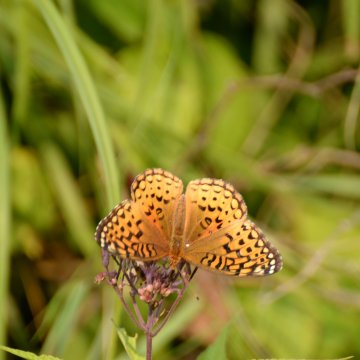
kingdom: Animalia
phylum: Arthropoda
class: Insecta
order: Lepidoptera
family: Nymphalidae
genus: Speyeria
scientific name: Speyeria aphrodite
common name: Aphrodite Fritillary
